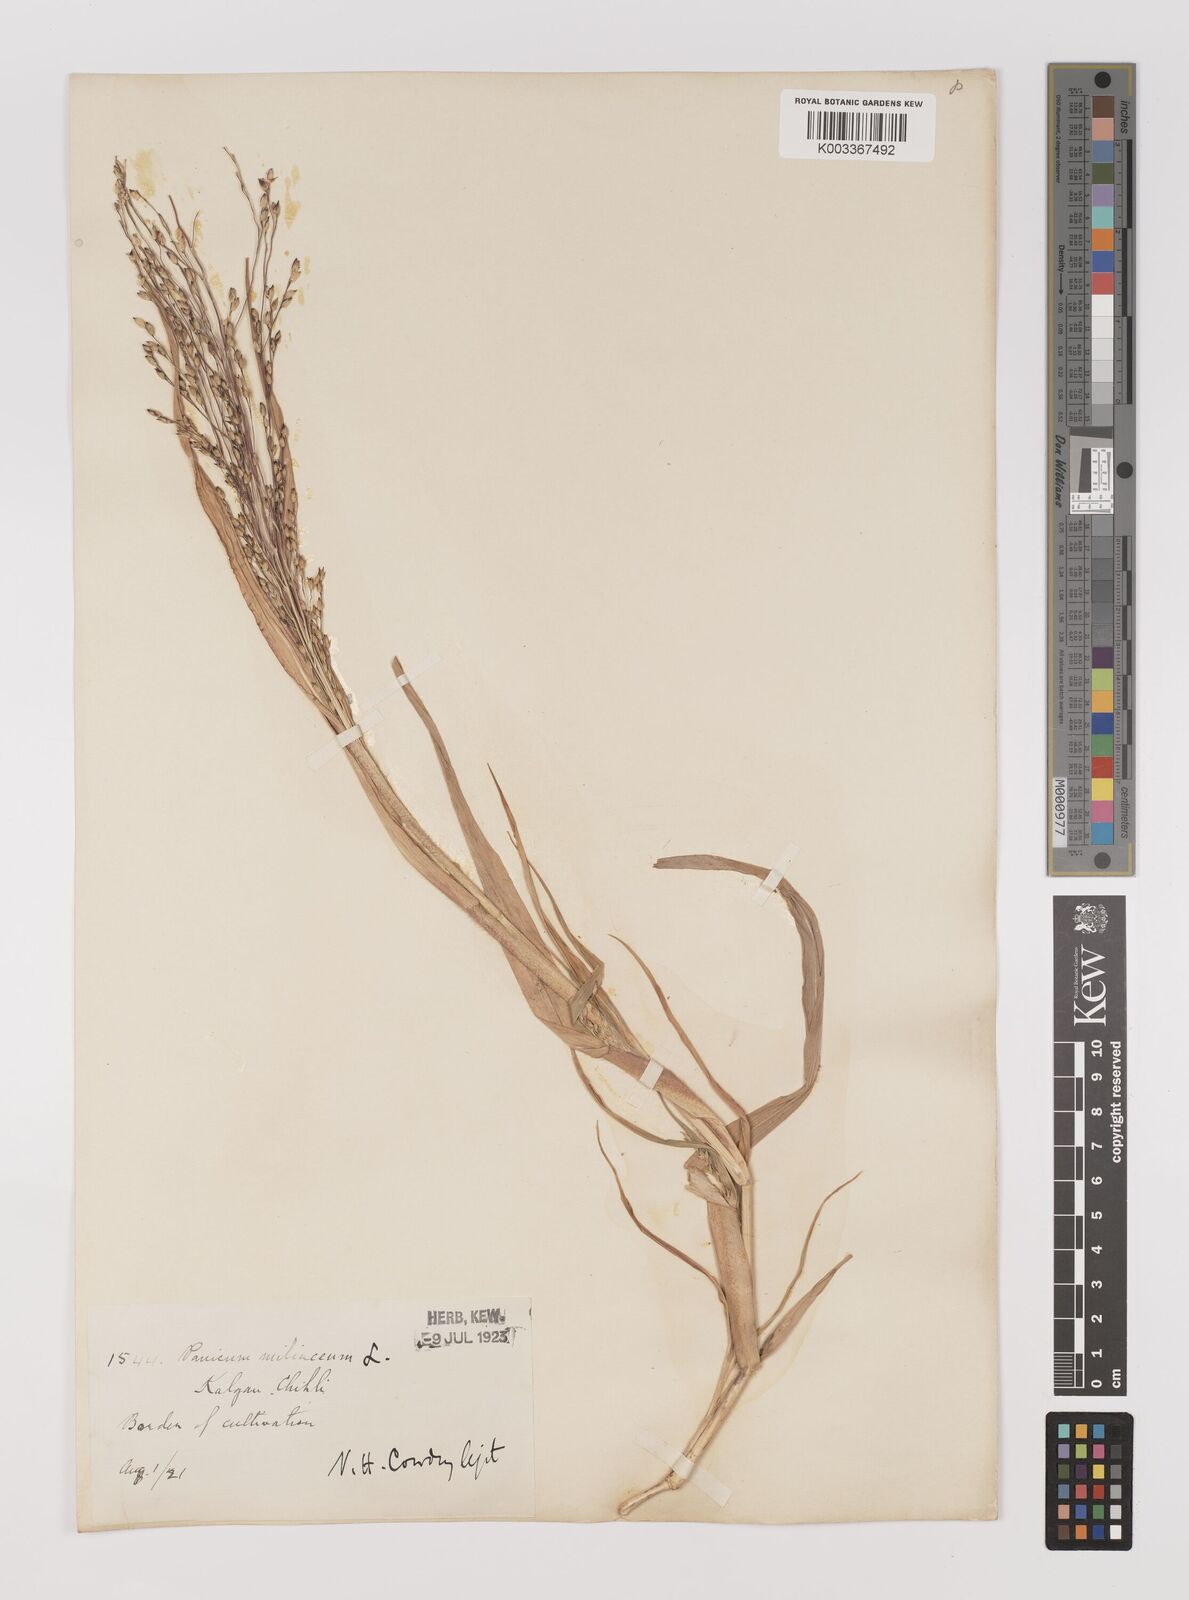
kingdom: Plantae
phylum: Tracheophyta
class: Liliopsida
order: Poales
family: Poaceae
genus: Panicum
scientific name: Panicum miliaceum
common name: Common millet
